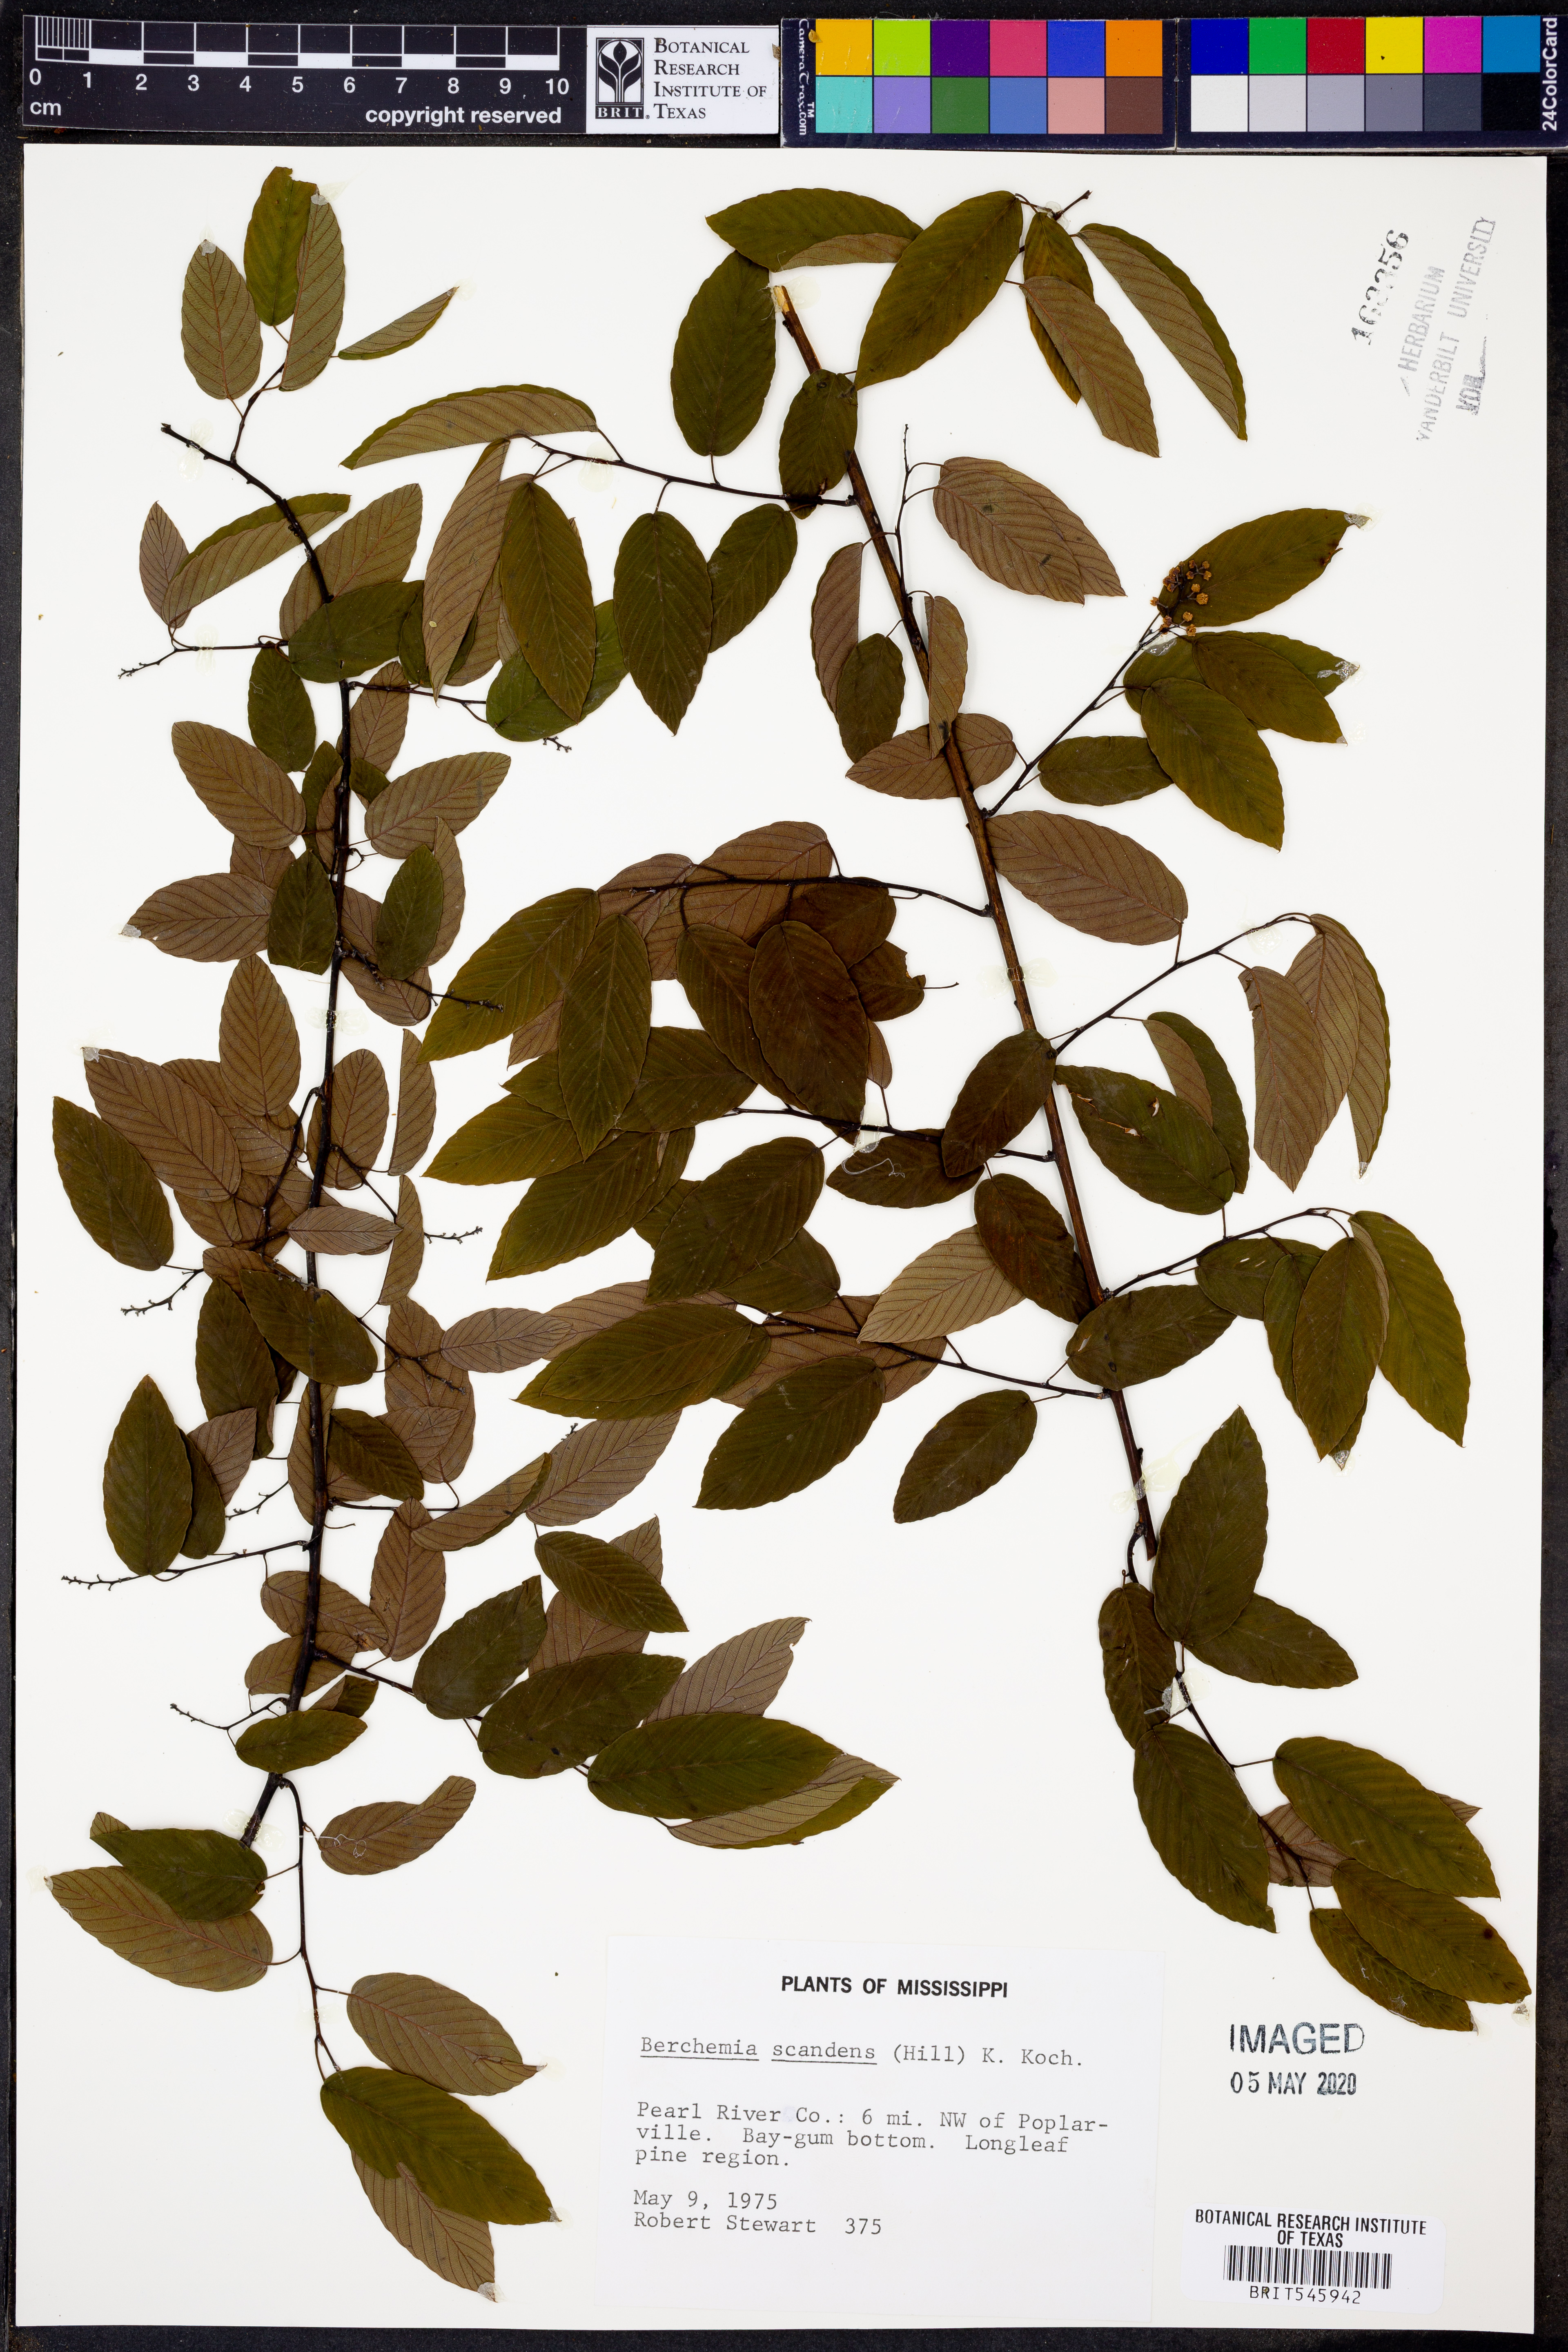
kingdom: Plantae
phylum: Tracheophyta
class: Magnoliopsida
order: Rosales
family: Rhamnaceae
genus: Berchemia
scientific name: Berchemia scandens
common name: Supplejack
